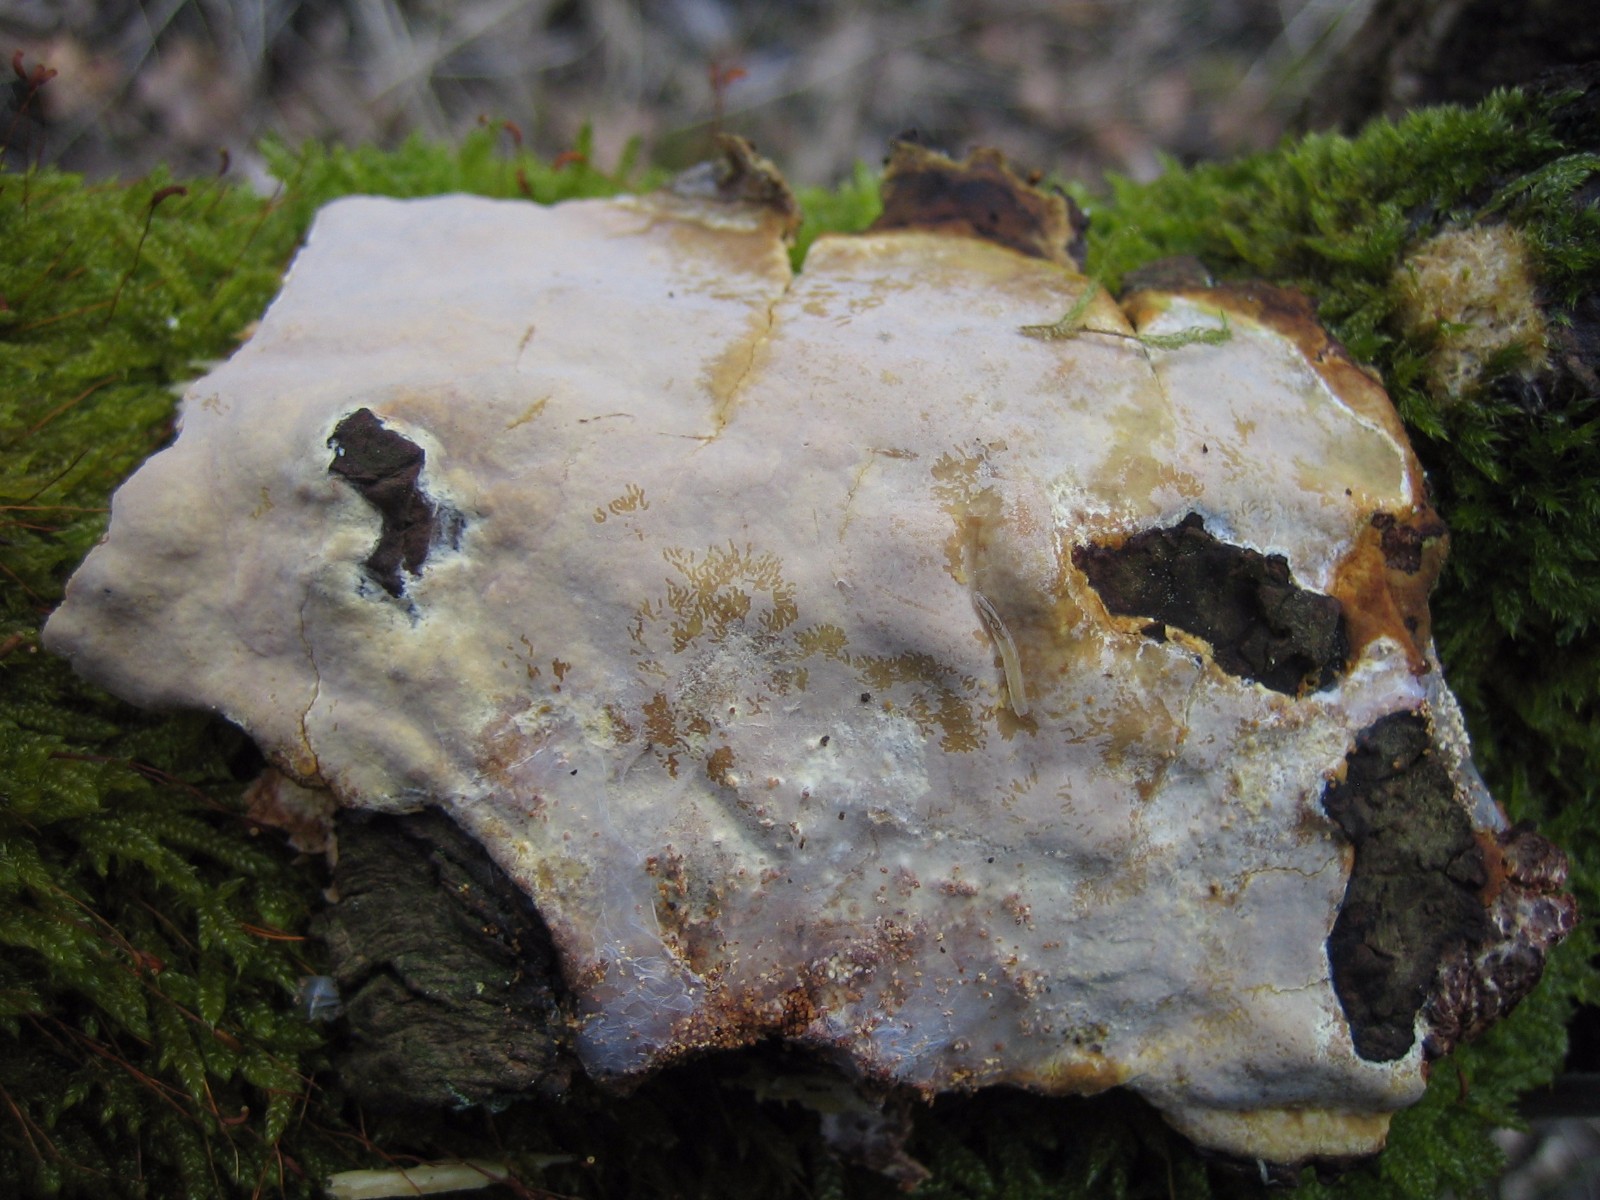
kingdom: Fungi
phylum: Basidiomycota
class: Agaricomycetes
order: Russulales
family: Peniophoraceae
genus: Scytinostroma
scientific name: Scytinostroma hemidichophyticum
